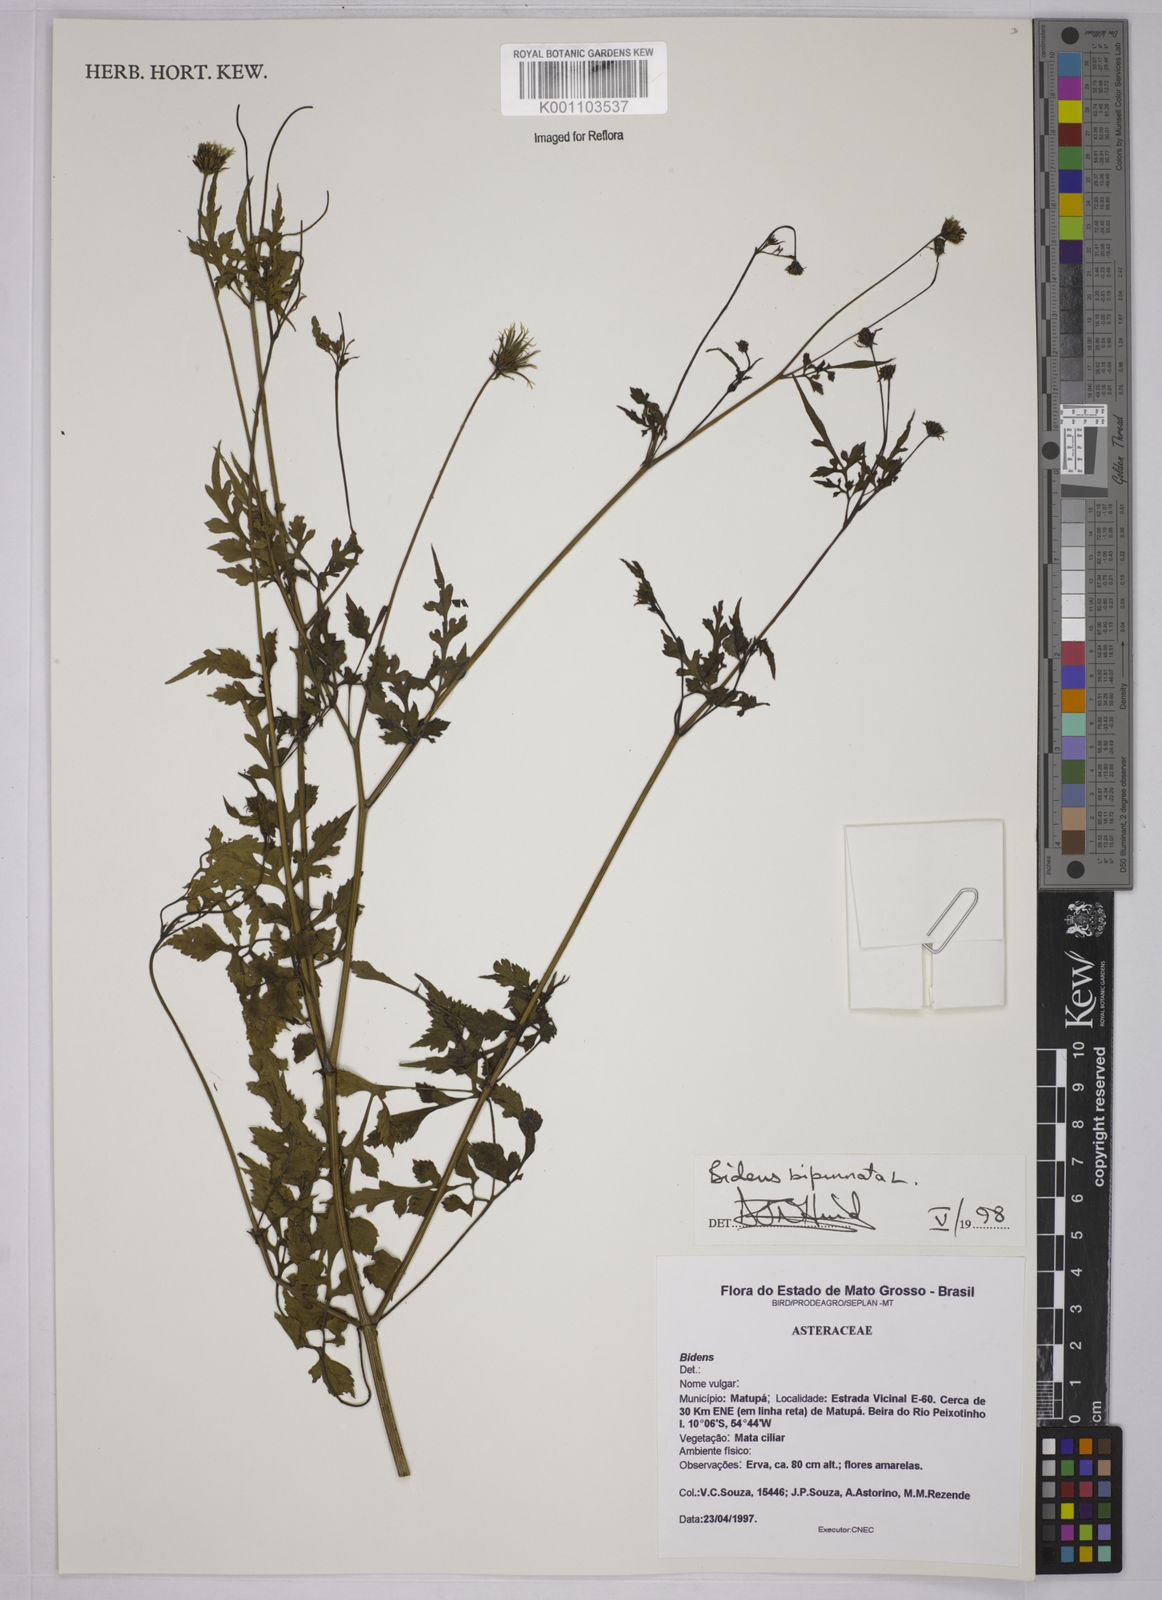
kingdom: Plantae
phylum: Tracheophyta
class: Magnoliopsida
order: Asterales
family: Asteraceae
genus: Bidens
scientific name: Bidens bipinnata
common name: Spanish-needles
